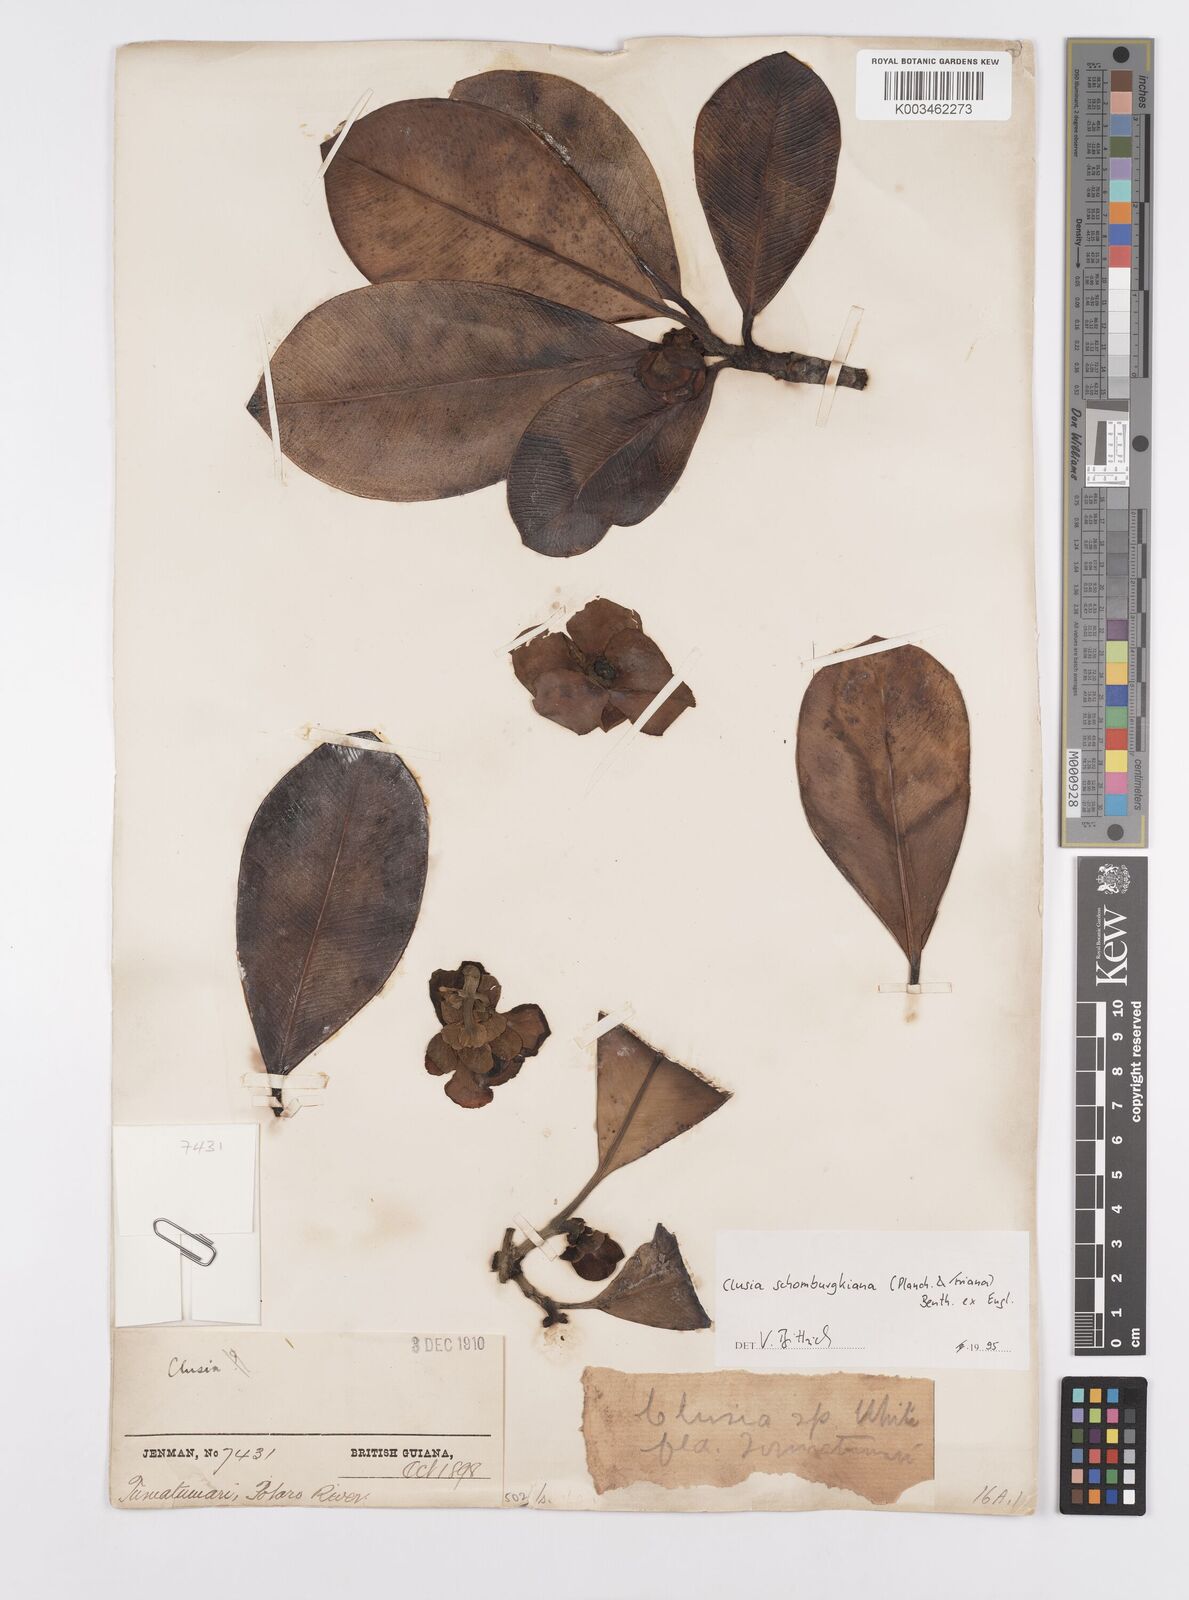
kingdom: Plantae
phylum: Tracheophyta
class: Magnoliopsida
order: Malpighiales
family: Clusiaceae
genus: Clusia
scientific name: Clusia schomburgkiana
